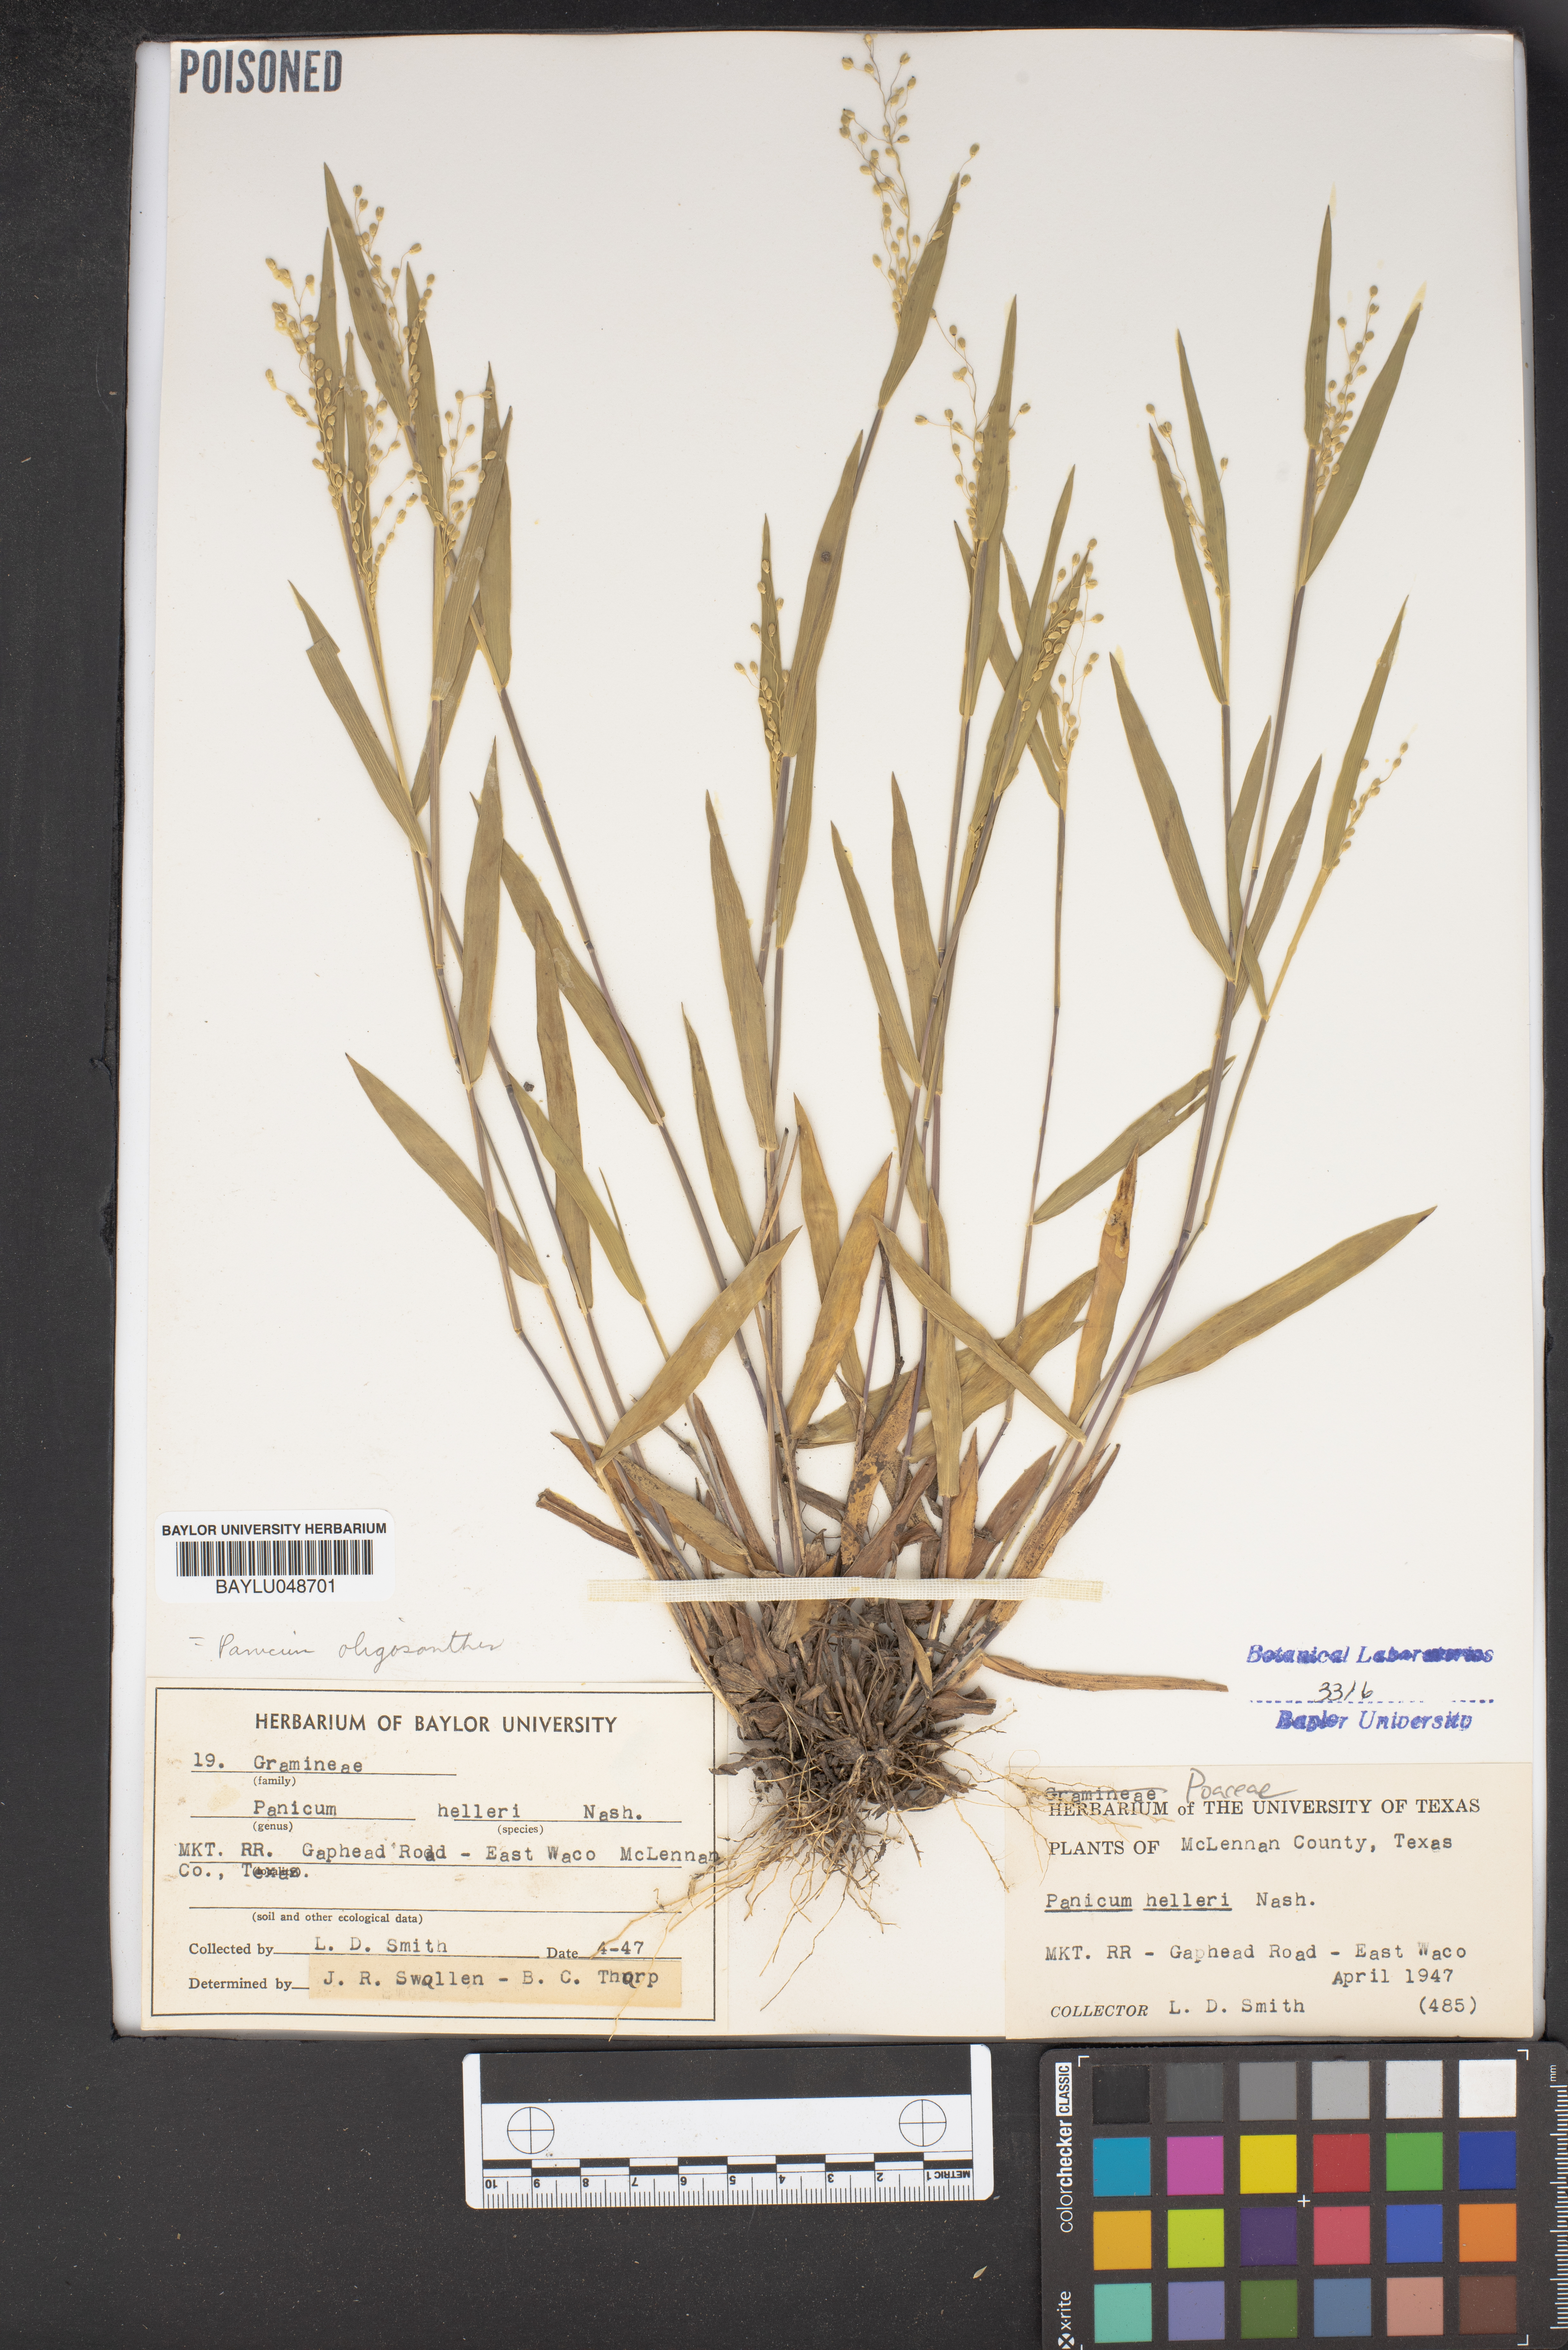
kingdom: Plantae
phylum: Tracheophyta
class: Liliopsida
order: Poales
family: Poaceae
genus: Dichanthelium
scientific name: Dichanthelium oligosanthes
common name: Few-anther obscuregrass
